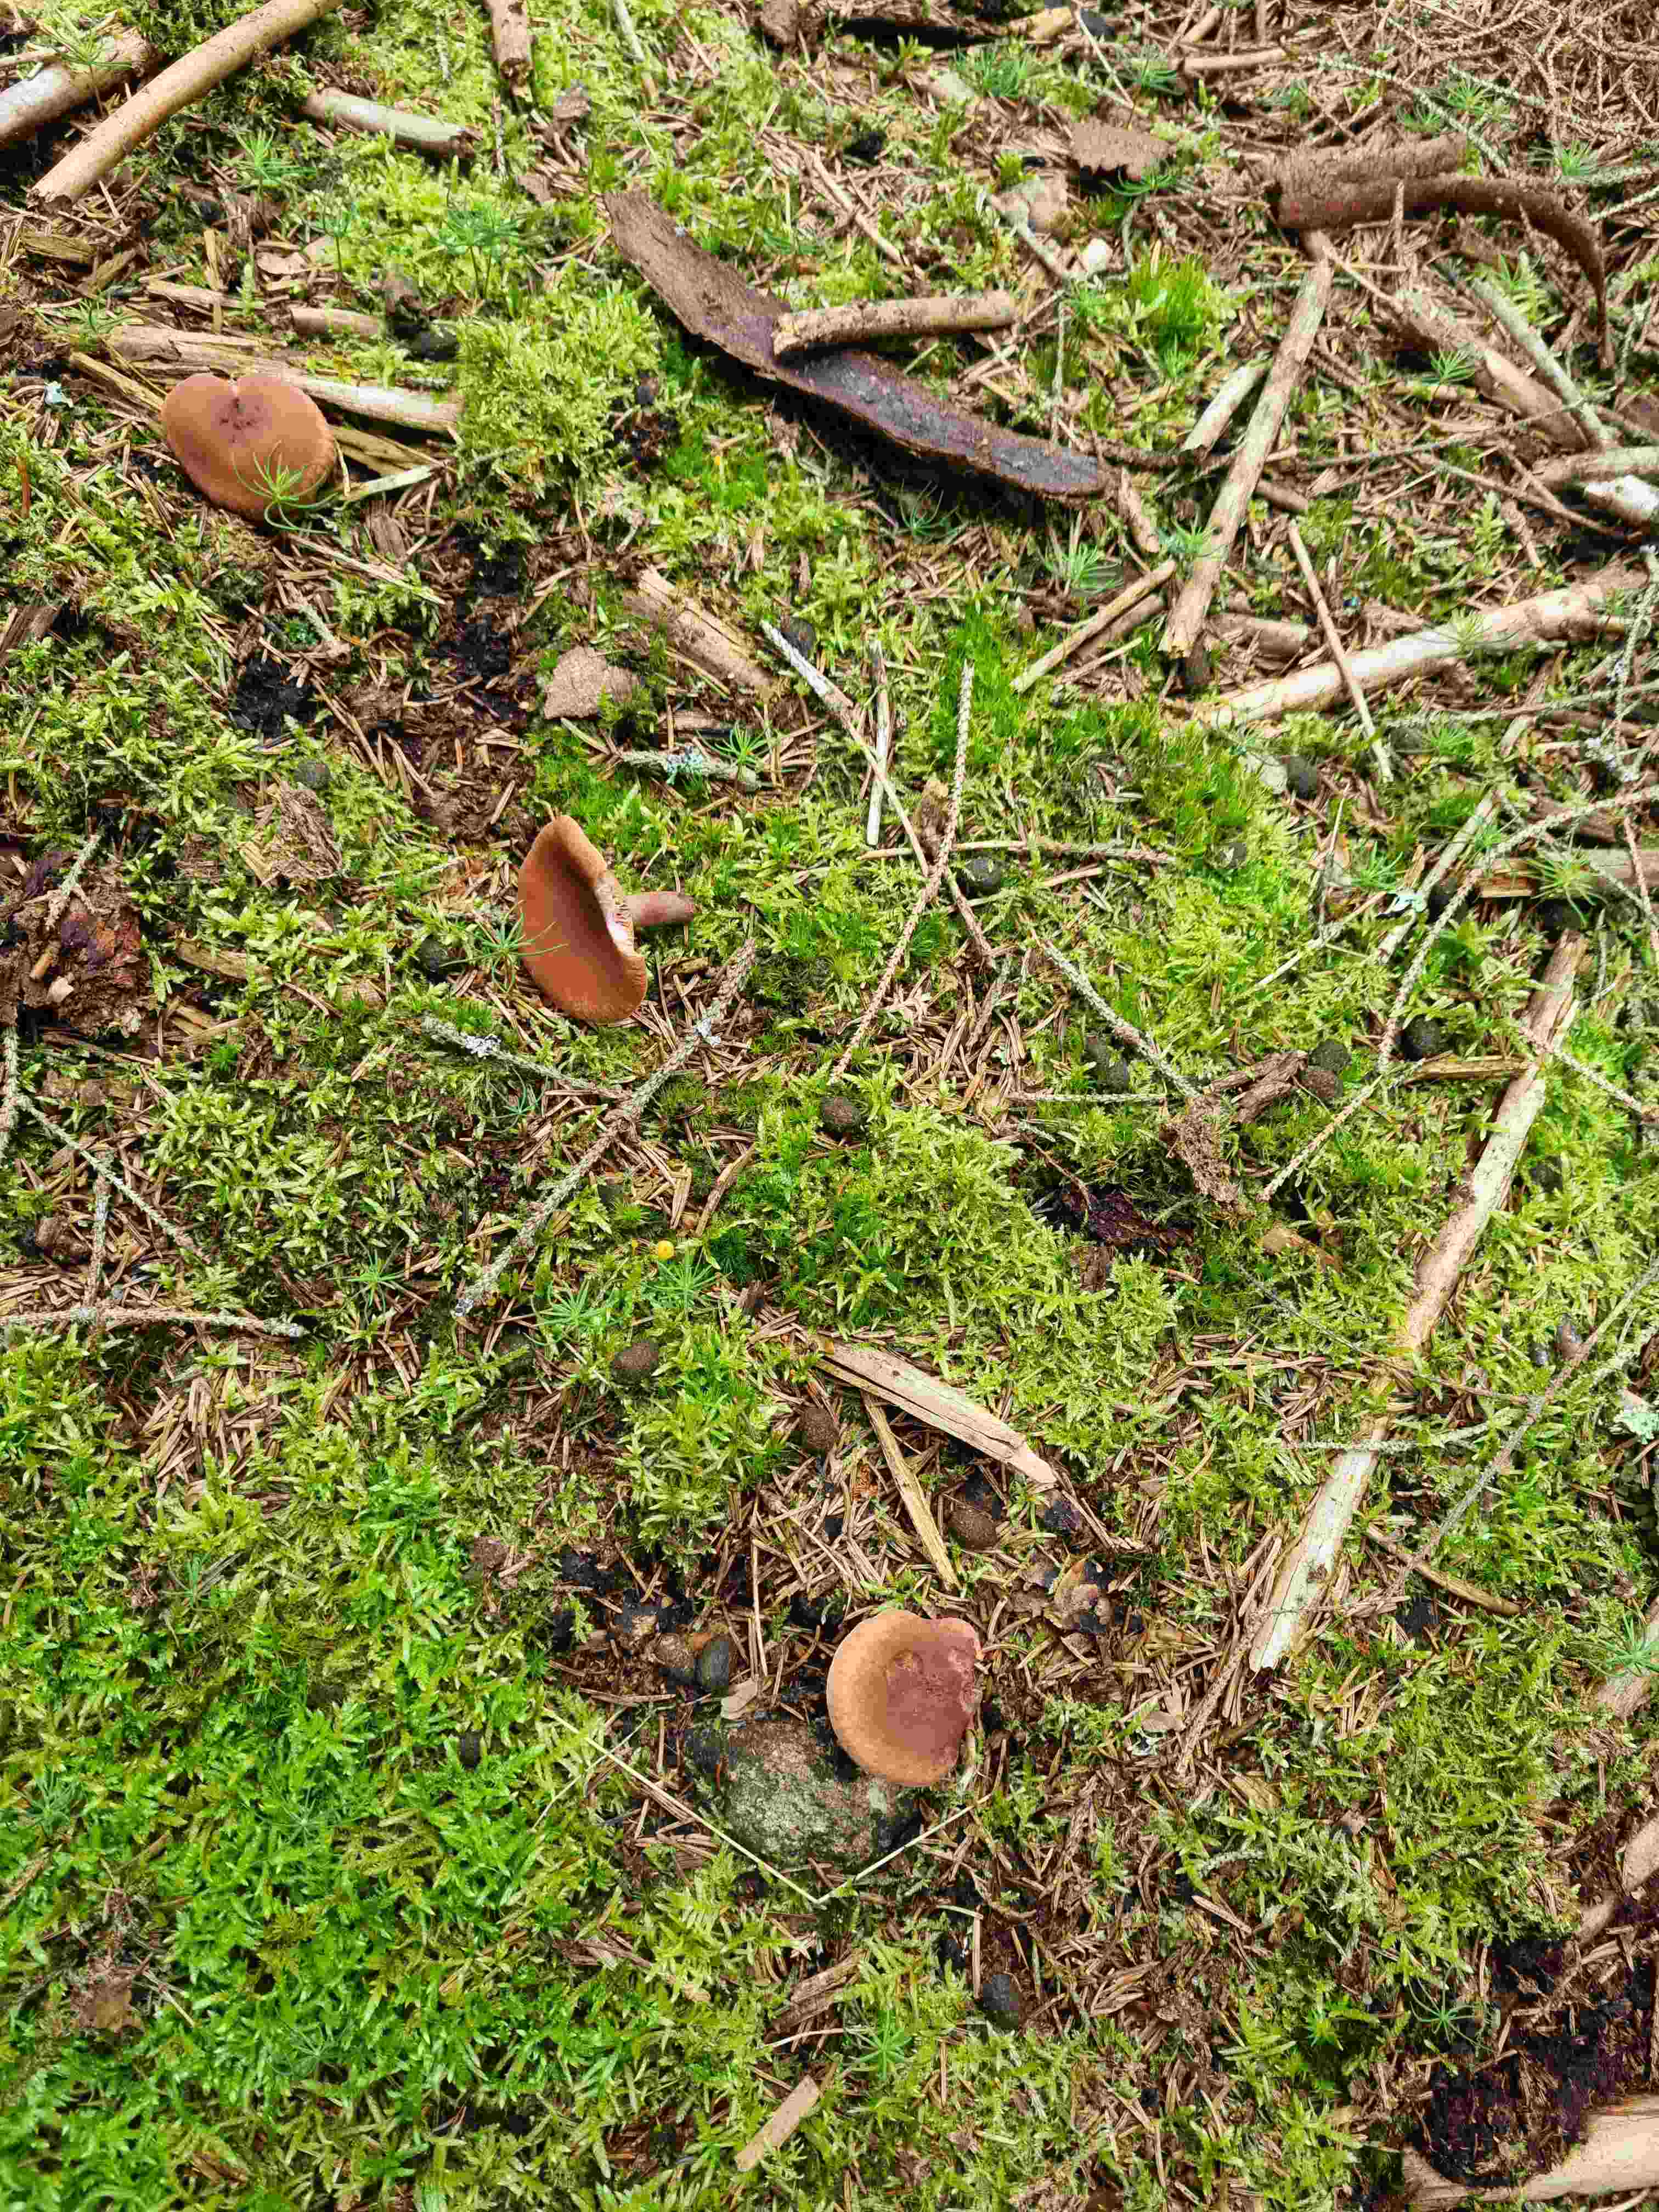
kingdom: Fungi
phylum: Basidiomycota
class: Agaricomycetes
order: Russulales
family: Russulaceae
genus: Lactarius
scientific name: Lactarius
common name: mælkehat
